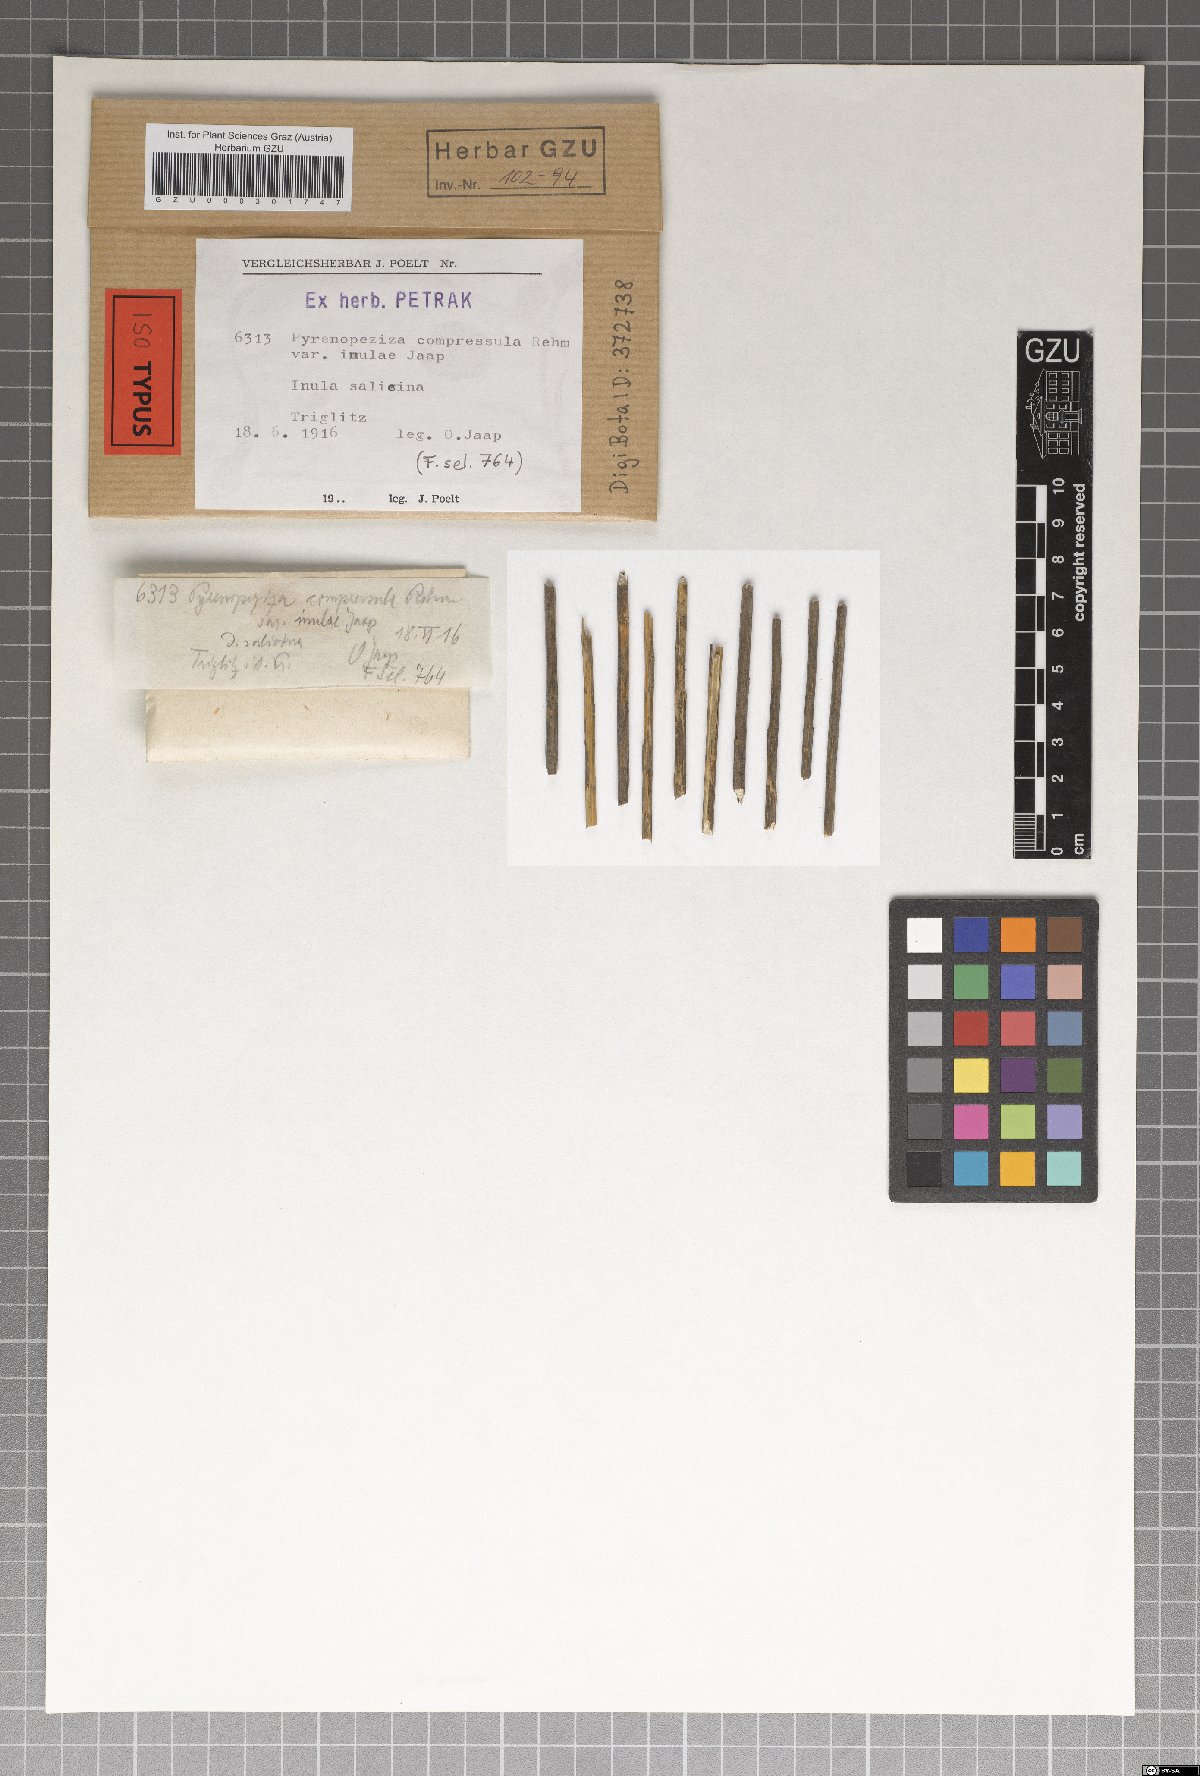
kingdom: Fungi
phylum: Ascomycota
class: Leotiomycetes
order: Helotiales
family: Ploettnerulaceae
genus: Pyrenopeziza
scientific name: Pyrenopeziza compressula
